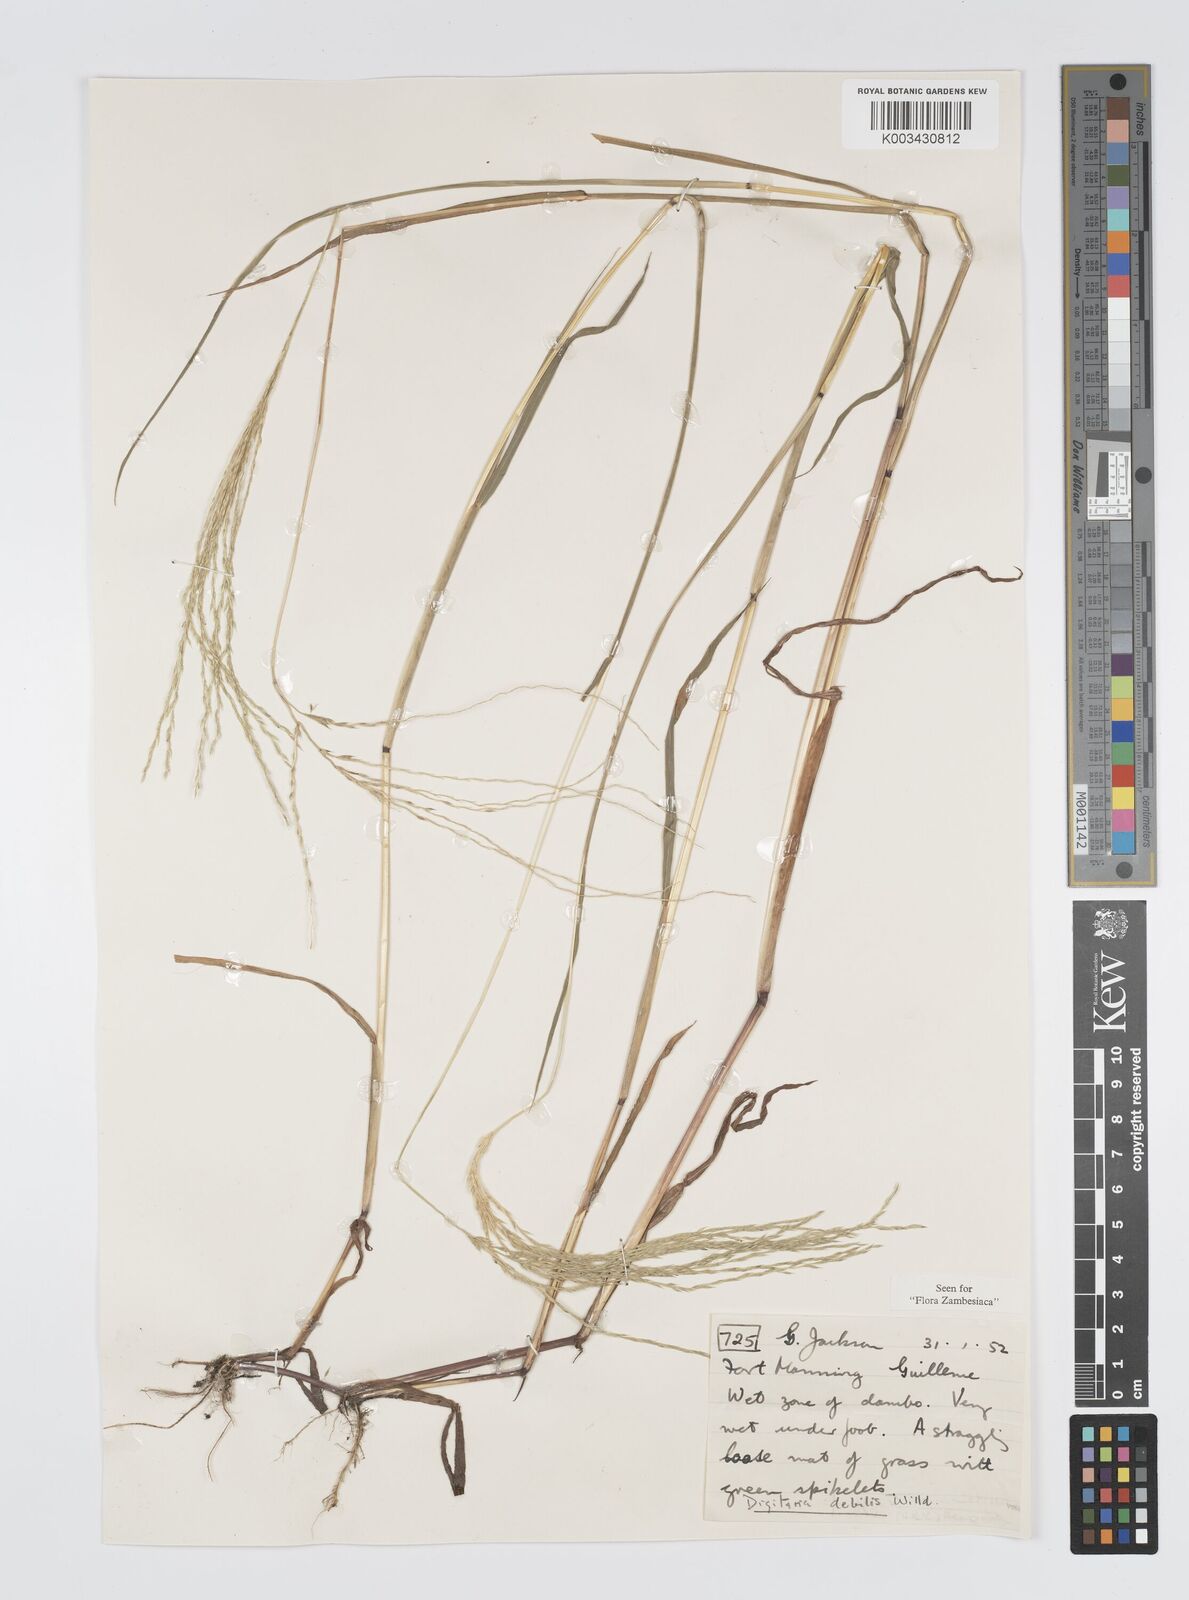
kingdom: Plantae
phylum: Tracheophyta
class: Liliopsida
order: Poales
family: Poaceae
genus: Digitaria
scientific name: Digitaria debilis
